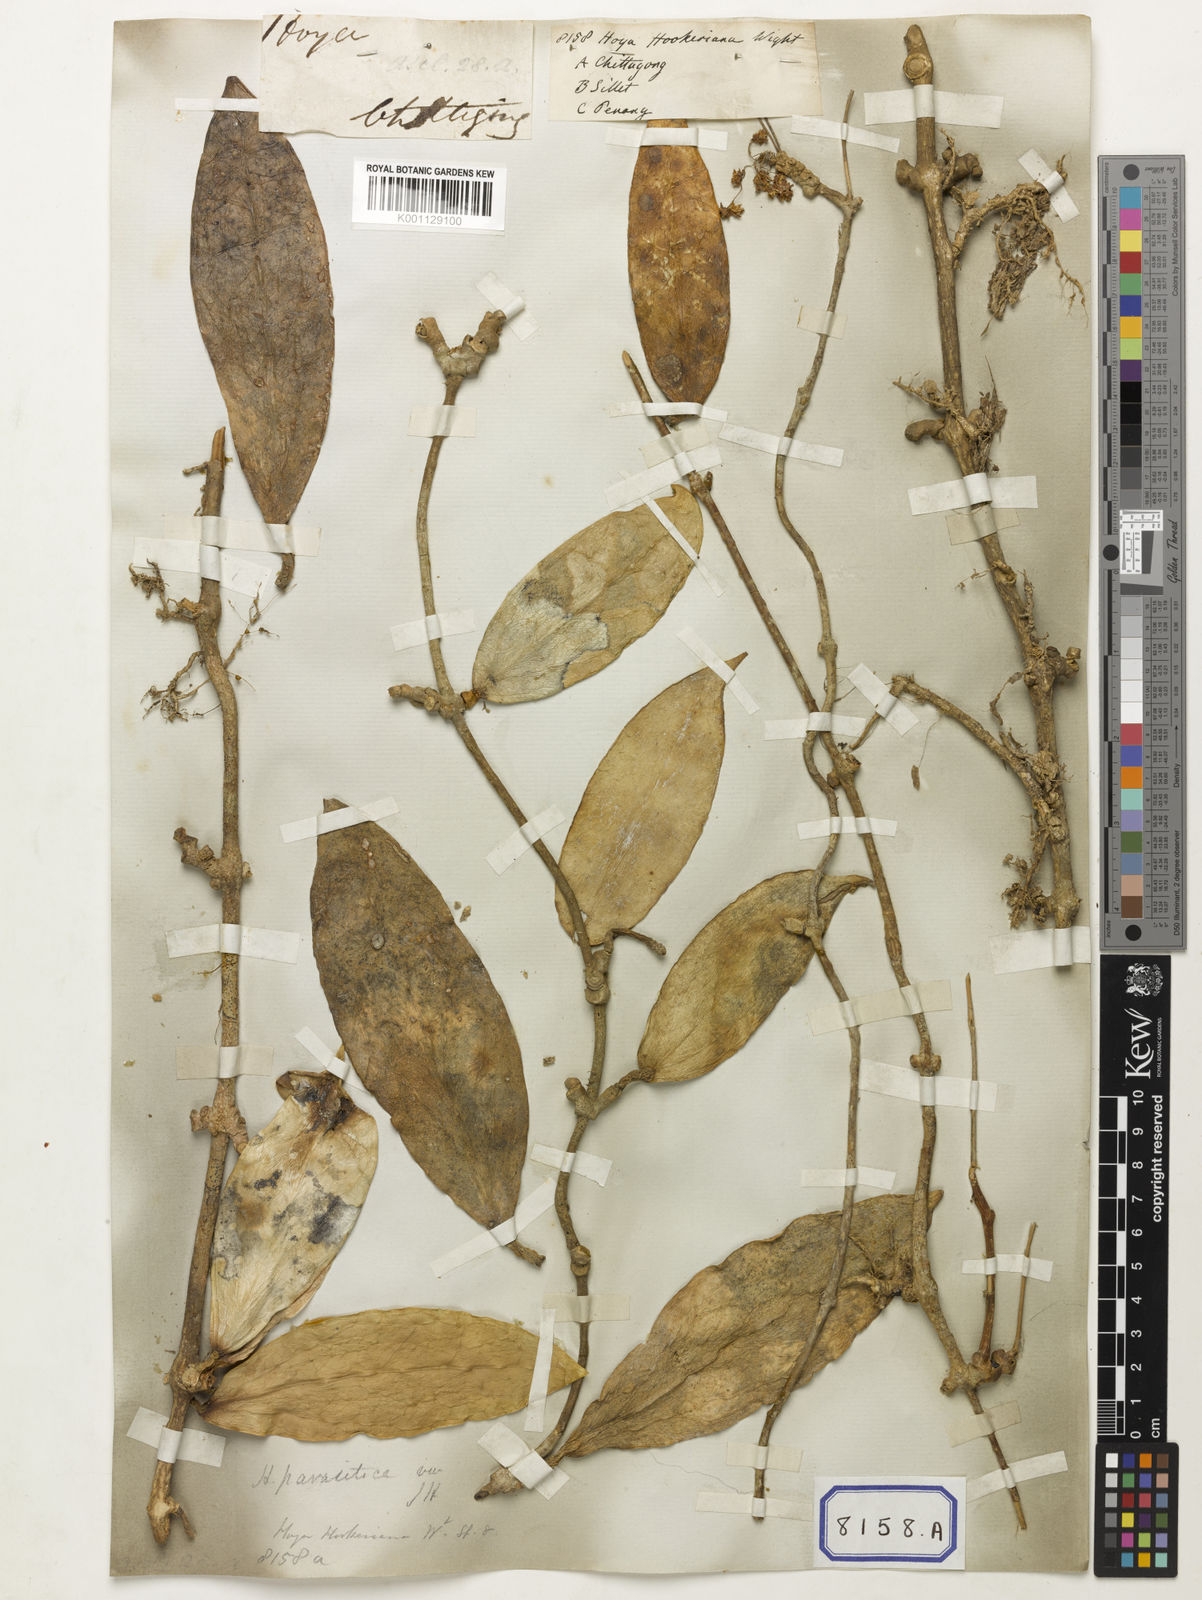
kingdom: Plantae
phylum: Tracheophyta
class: Magnoliopsida
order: Gentianales
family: Apocynaceae
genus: Hoya
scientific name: Hoya verticillata
